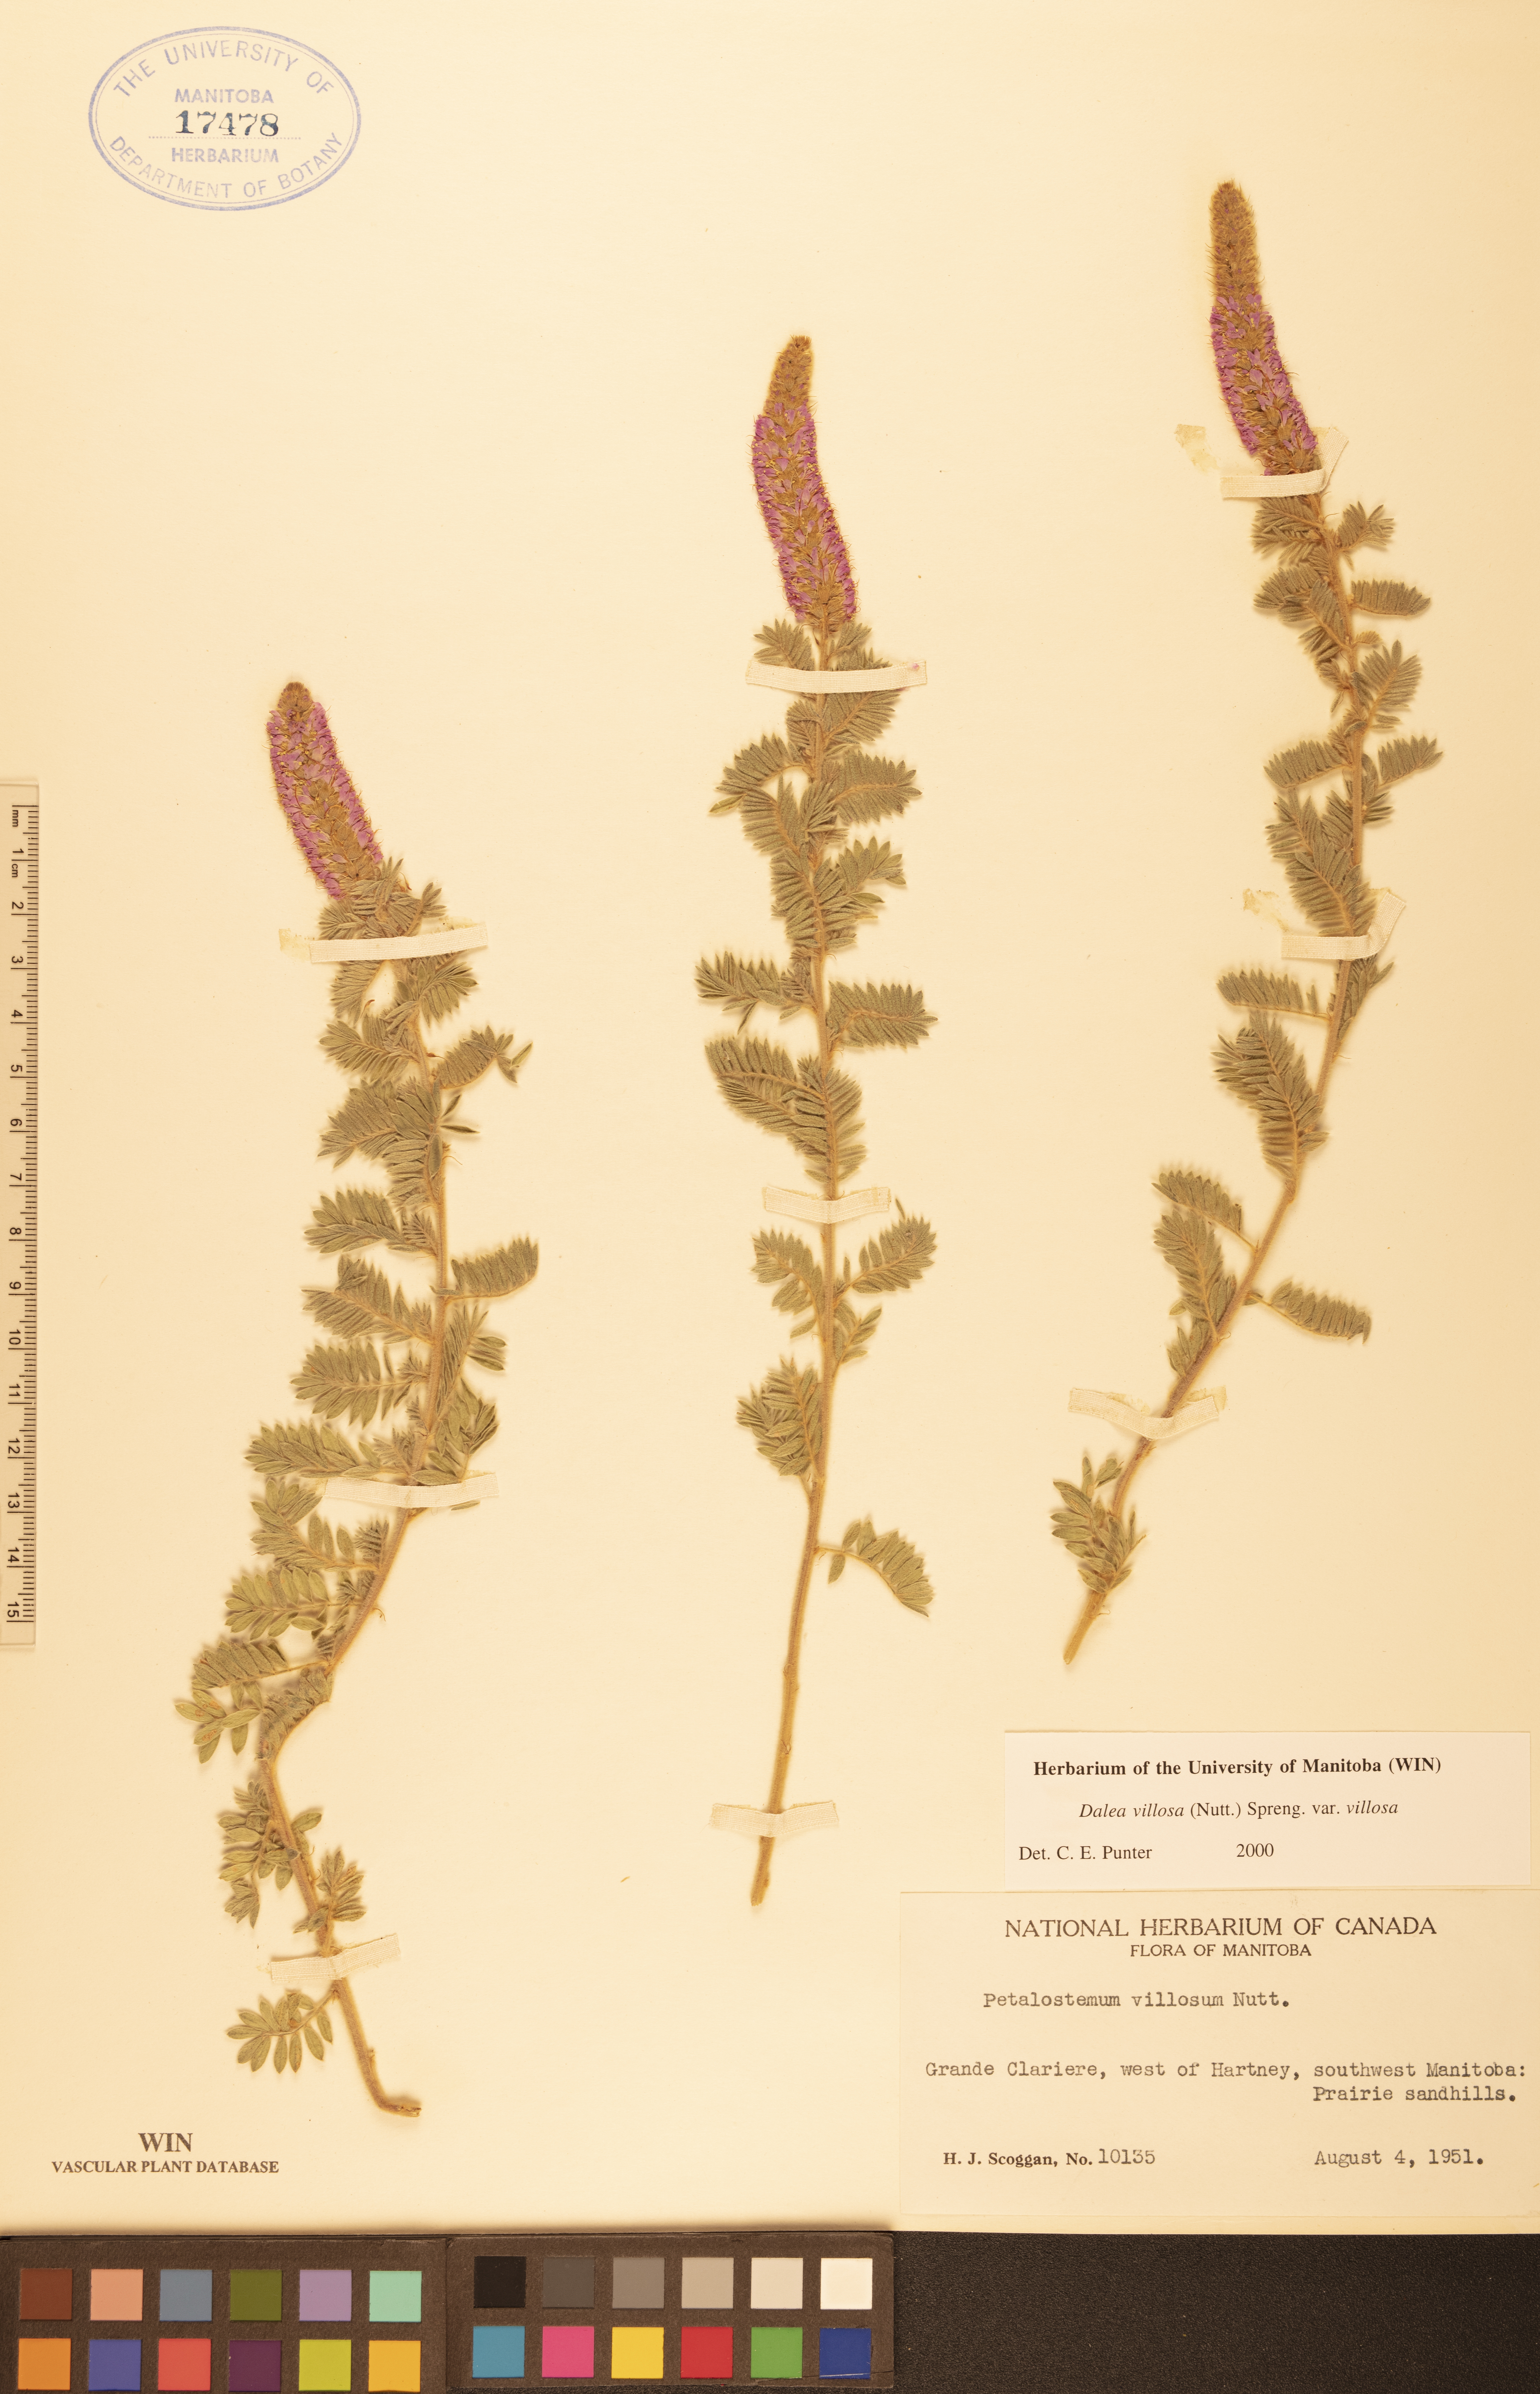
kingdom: Plantae
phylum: Tracheophyta
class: Magnoliopsida
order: Fabales
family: Fabaceae
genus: Dalea
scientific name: Dalea villosa
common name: Silky prairie-clover
